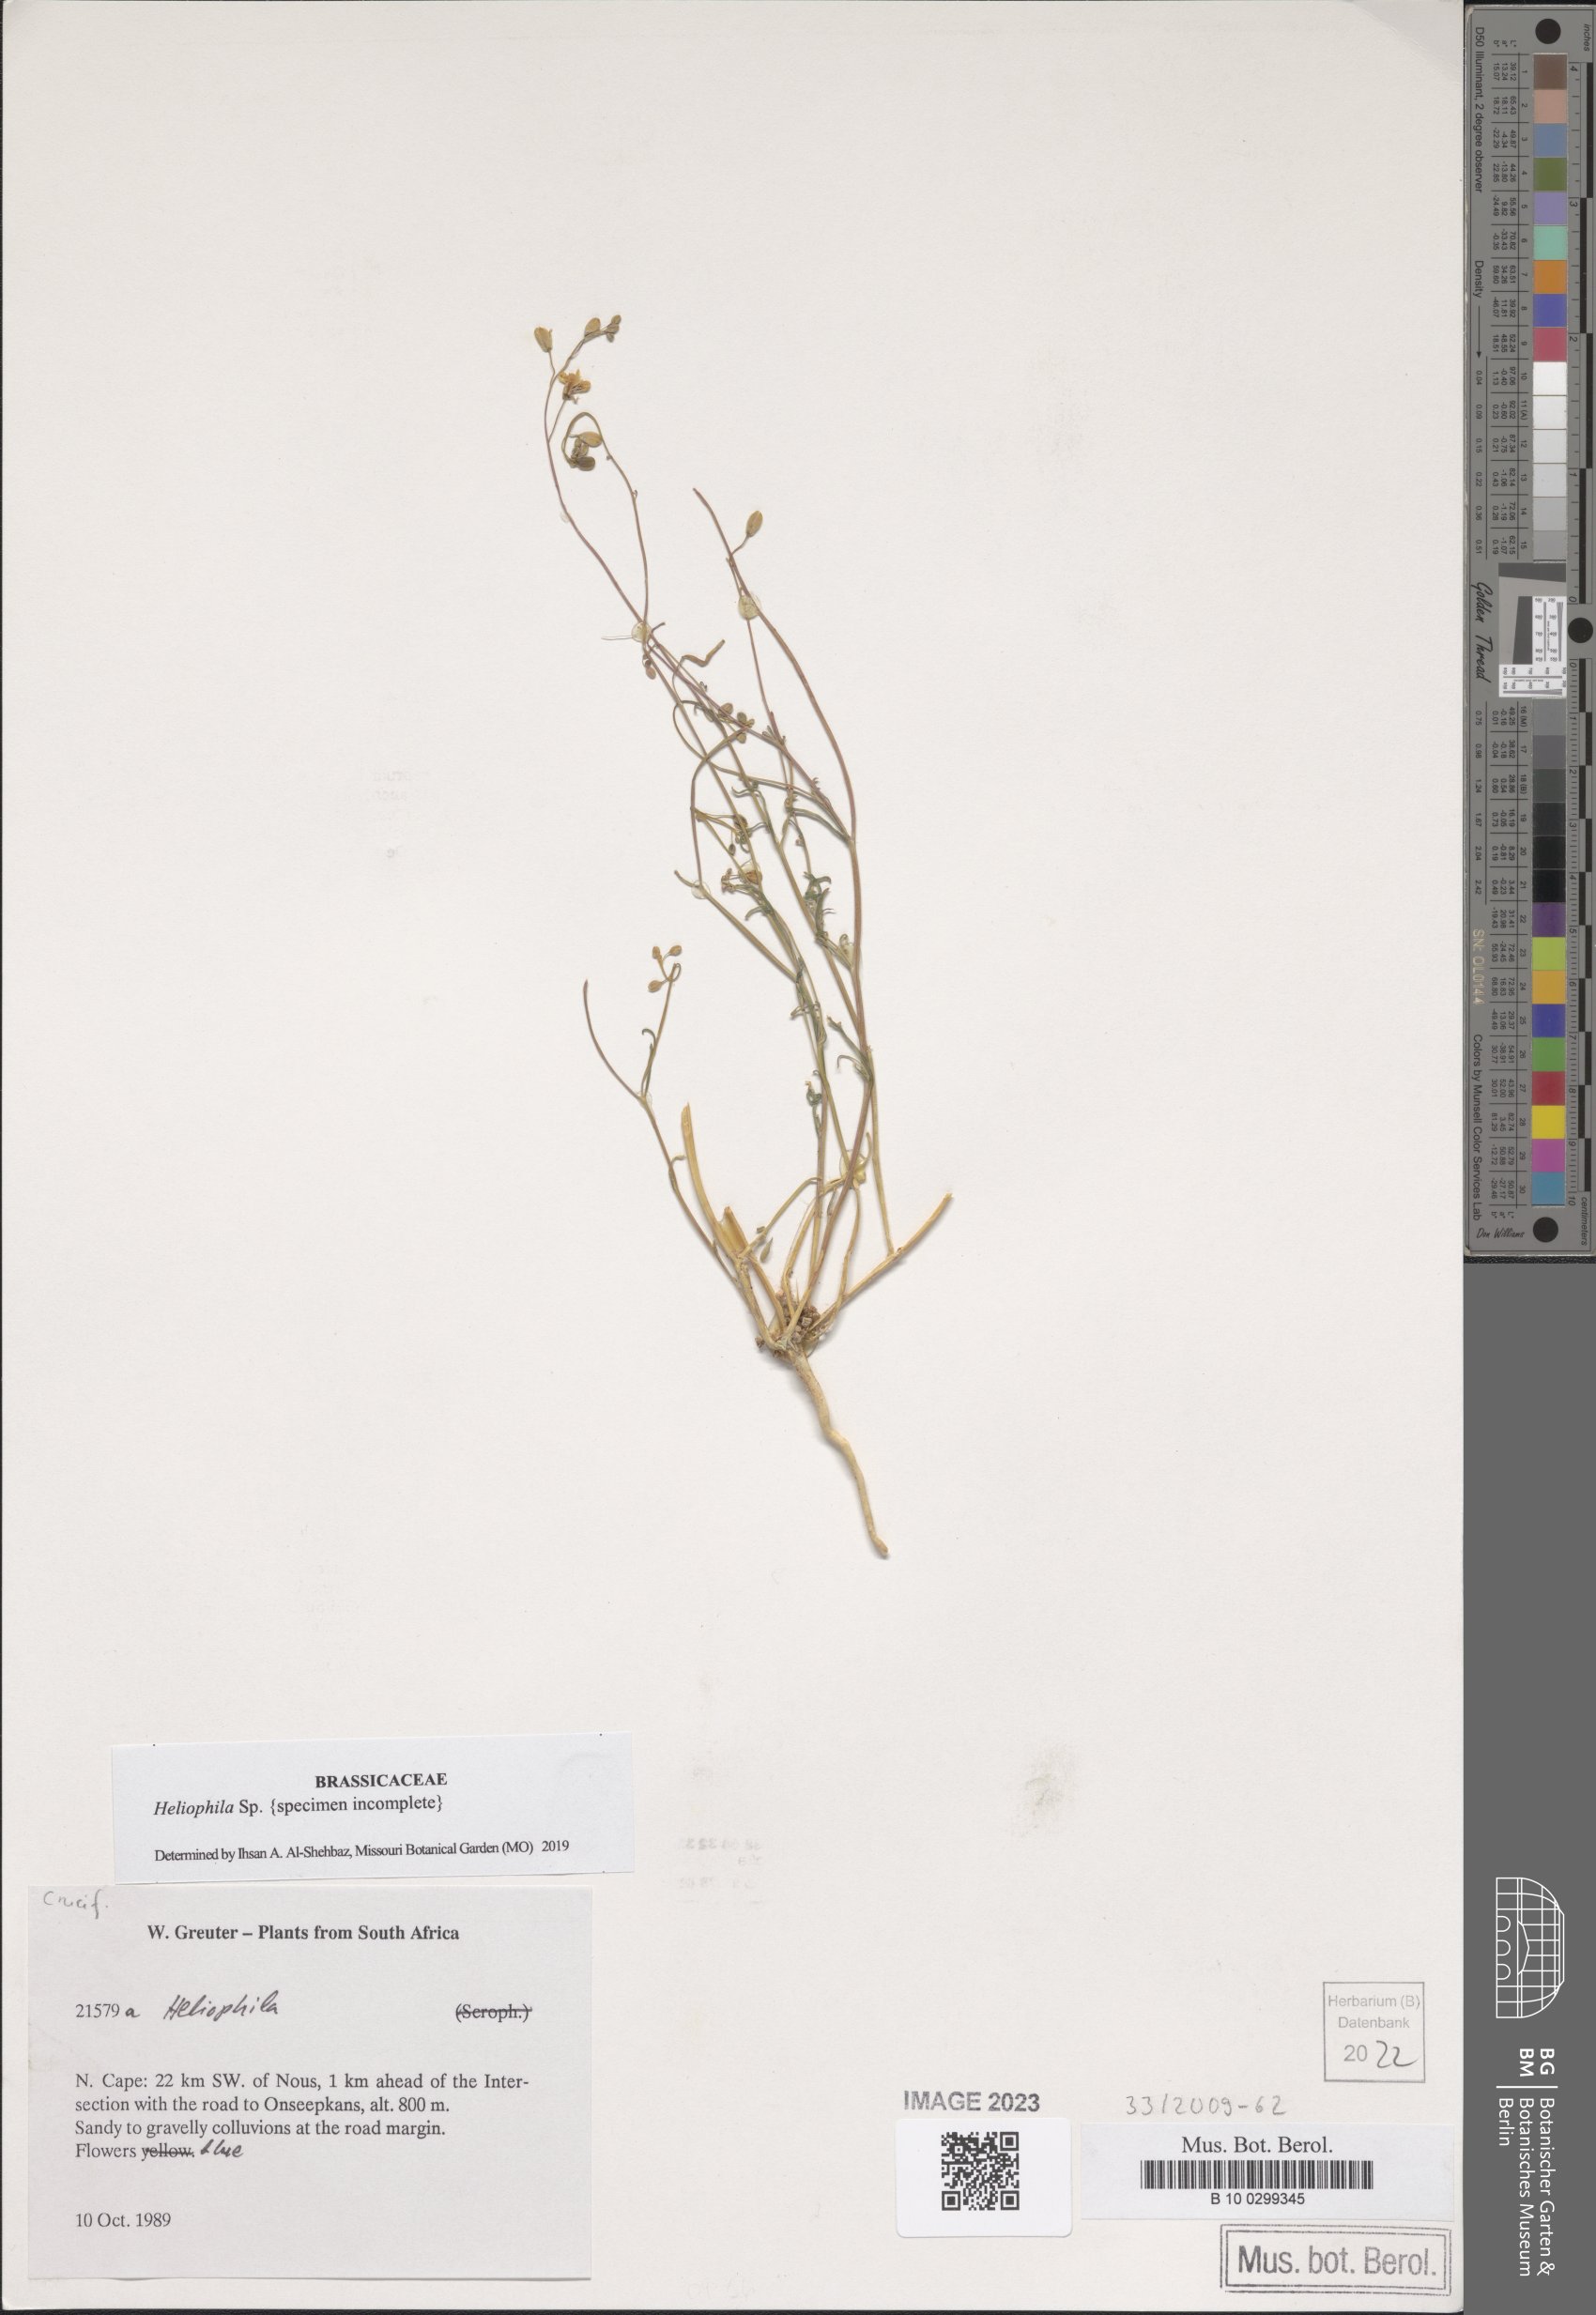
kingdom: Plantae
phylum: Tracheophyta
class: Magnoliopsida
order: Brassicales
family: Brassicaceae
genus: Heliophila
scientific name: Heliophila
